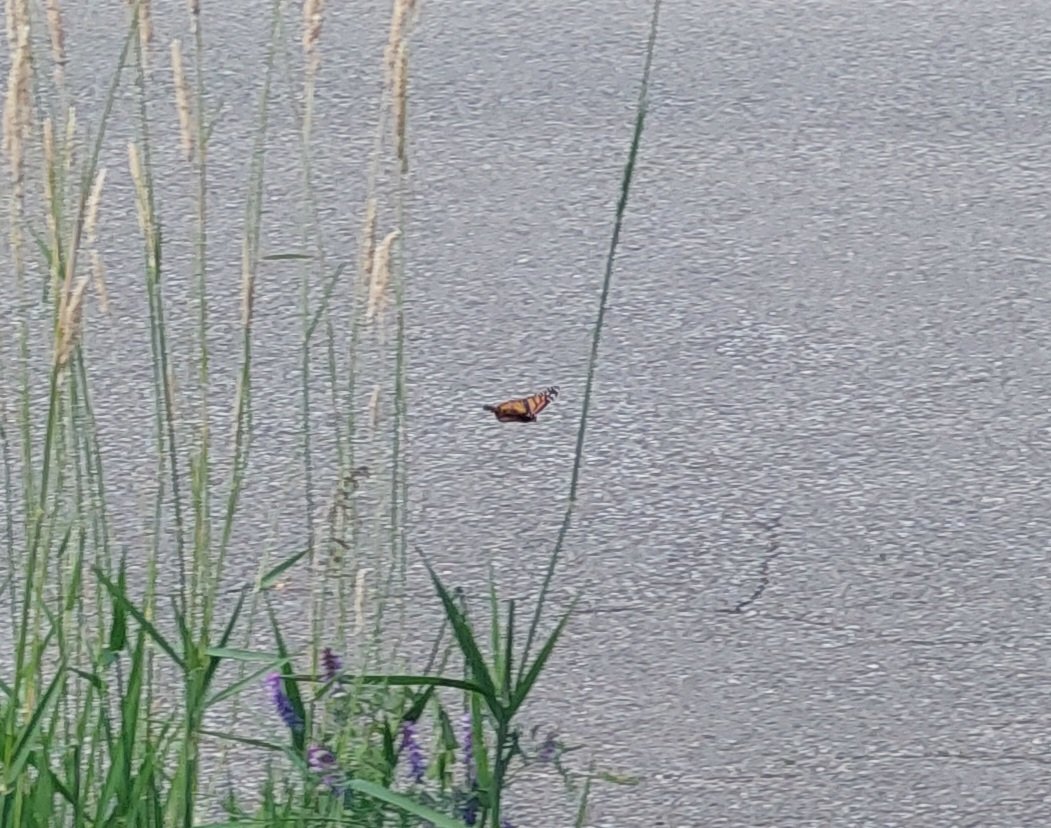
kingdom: Animalia
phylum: Arthropoda
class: Insecta
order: Lepidoptera
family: Nymphalidae
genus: Danaus
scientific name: Danaus plexippus
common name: Monarch
